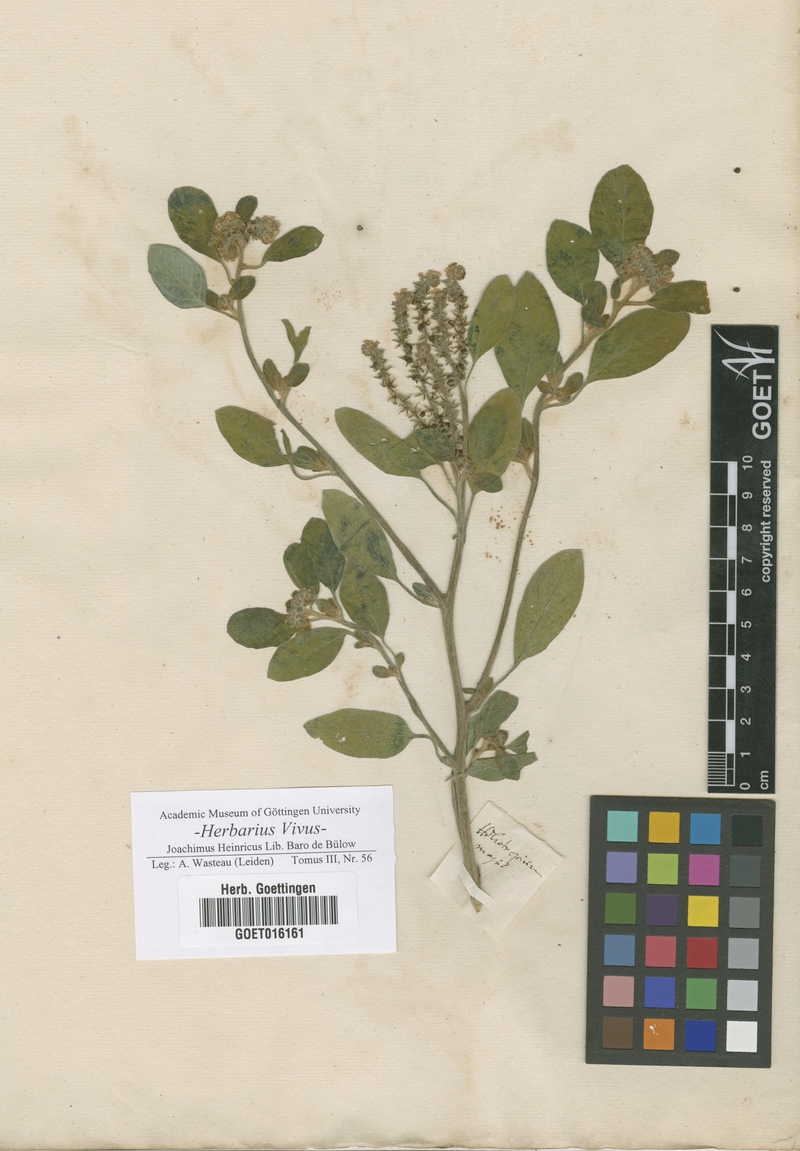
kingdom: Plantae
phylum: Tracheophyta
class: Magnoliopsida
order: Boraginales
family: Heliotropiaceae
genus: Heliotropium
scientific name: Heliotropium europaeum
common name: European heliotrope
